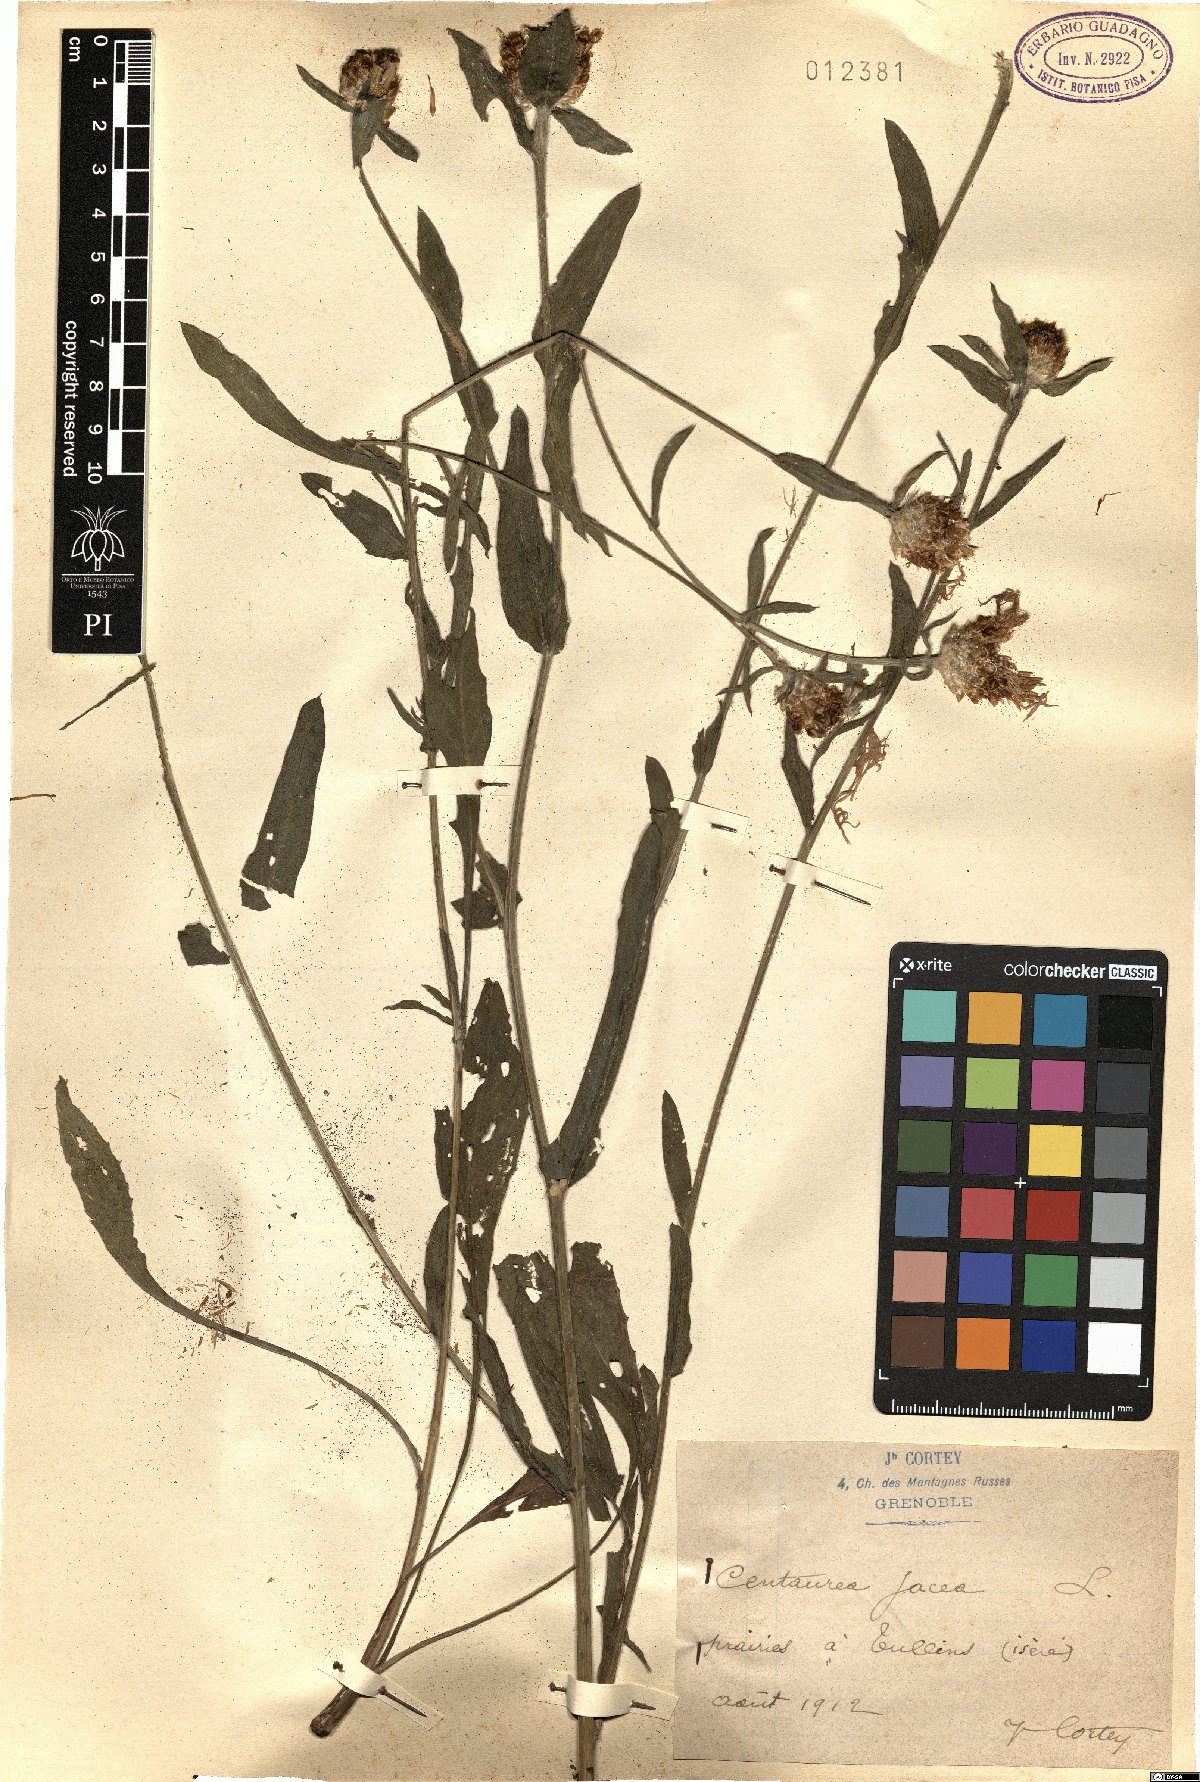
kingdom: Plantae
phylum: Tracheophyta
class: Magnoliopsida
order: Asterales
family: Asteraceae
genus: Centaurea
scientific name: Centaurea jacea
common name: Brown knapweed
